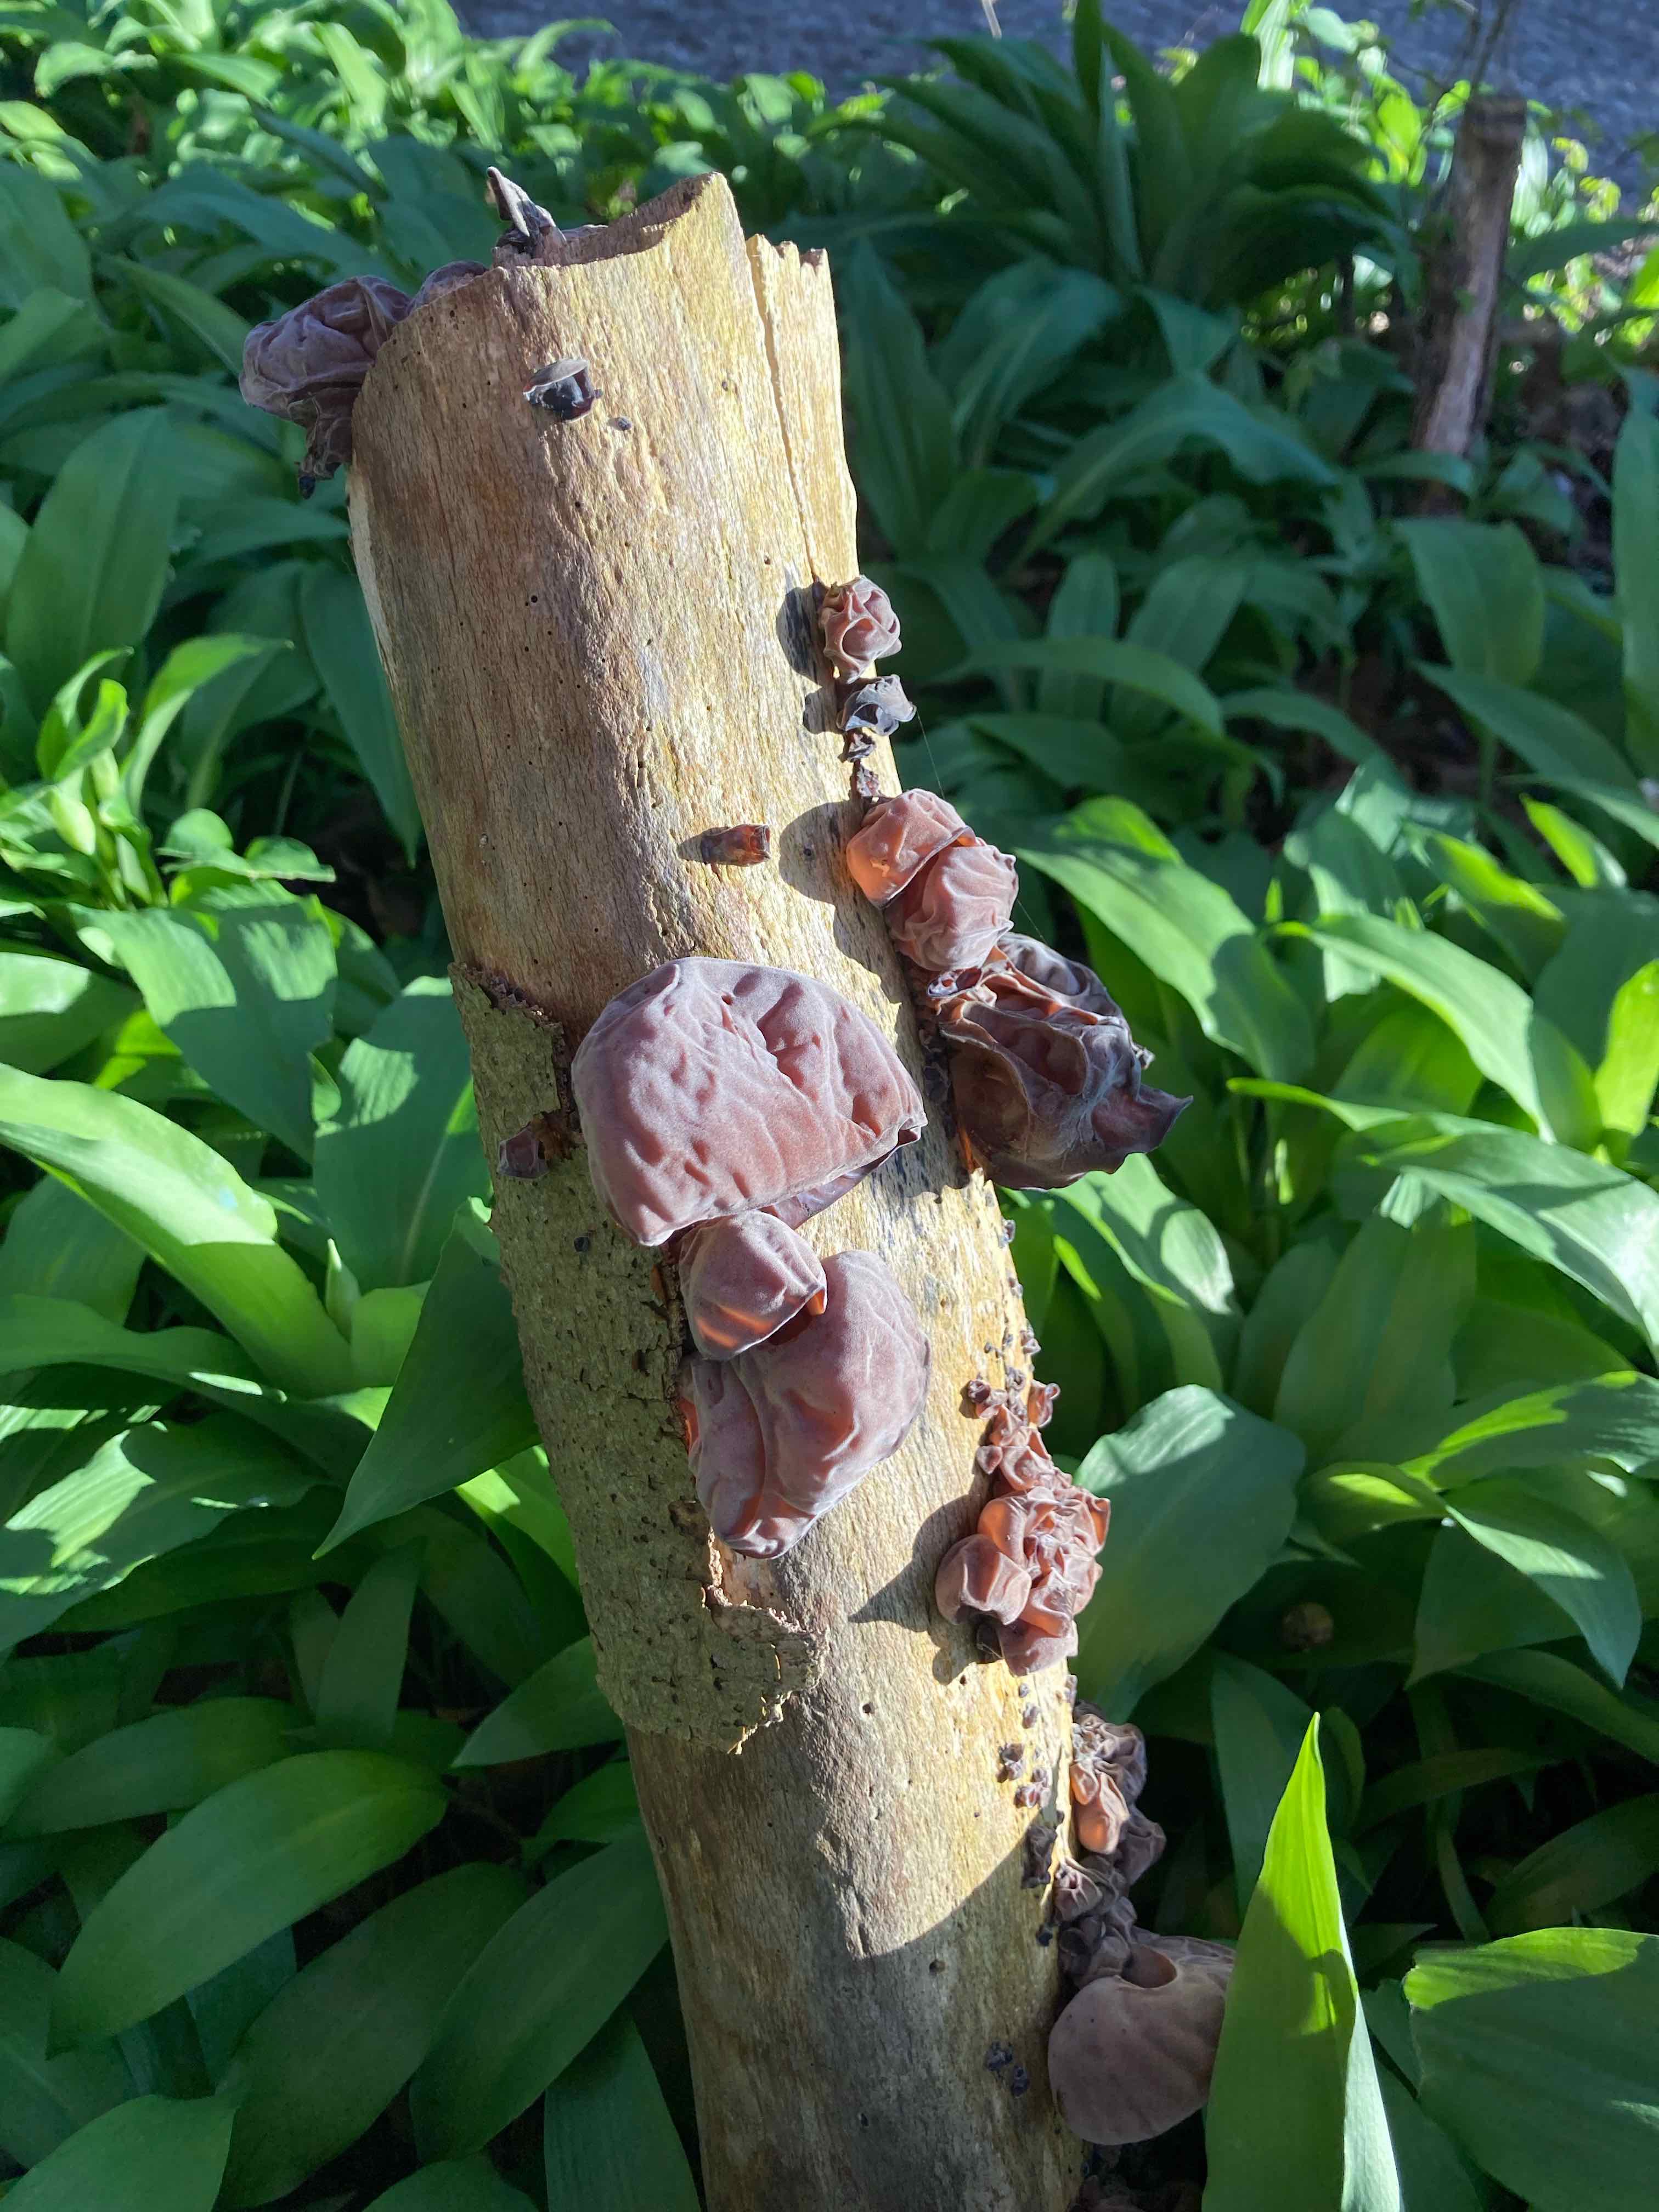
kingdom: Fungi
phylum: Basidiomycota
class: Agaricomycetes
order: Auriculariales
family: Auriculariaceae
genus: Auricularia
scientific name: Auricularia auricula-judae
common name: almindelig judasøre
